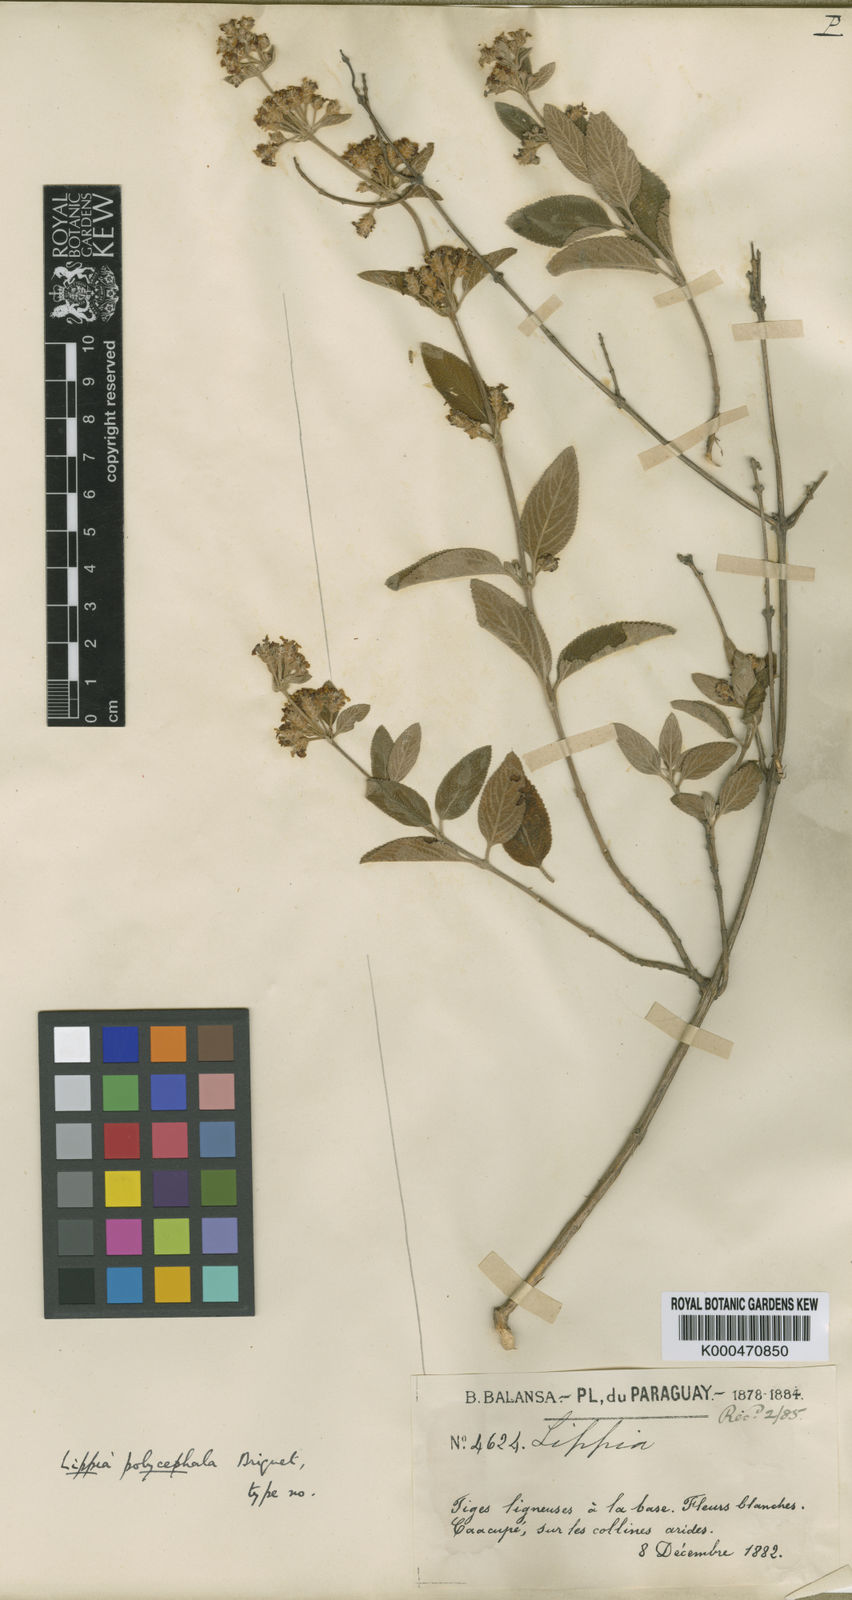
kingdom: Plantae
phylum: Tracheophyta
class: Magnoliopsida
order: Lamiales
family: Verbenaceae
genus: Lippia
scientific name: Lippia origanoides
